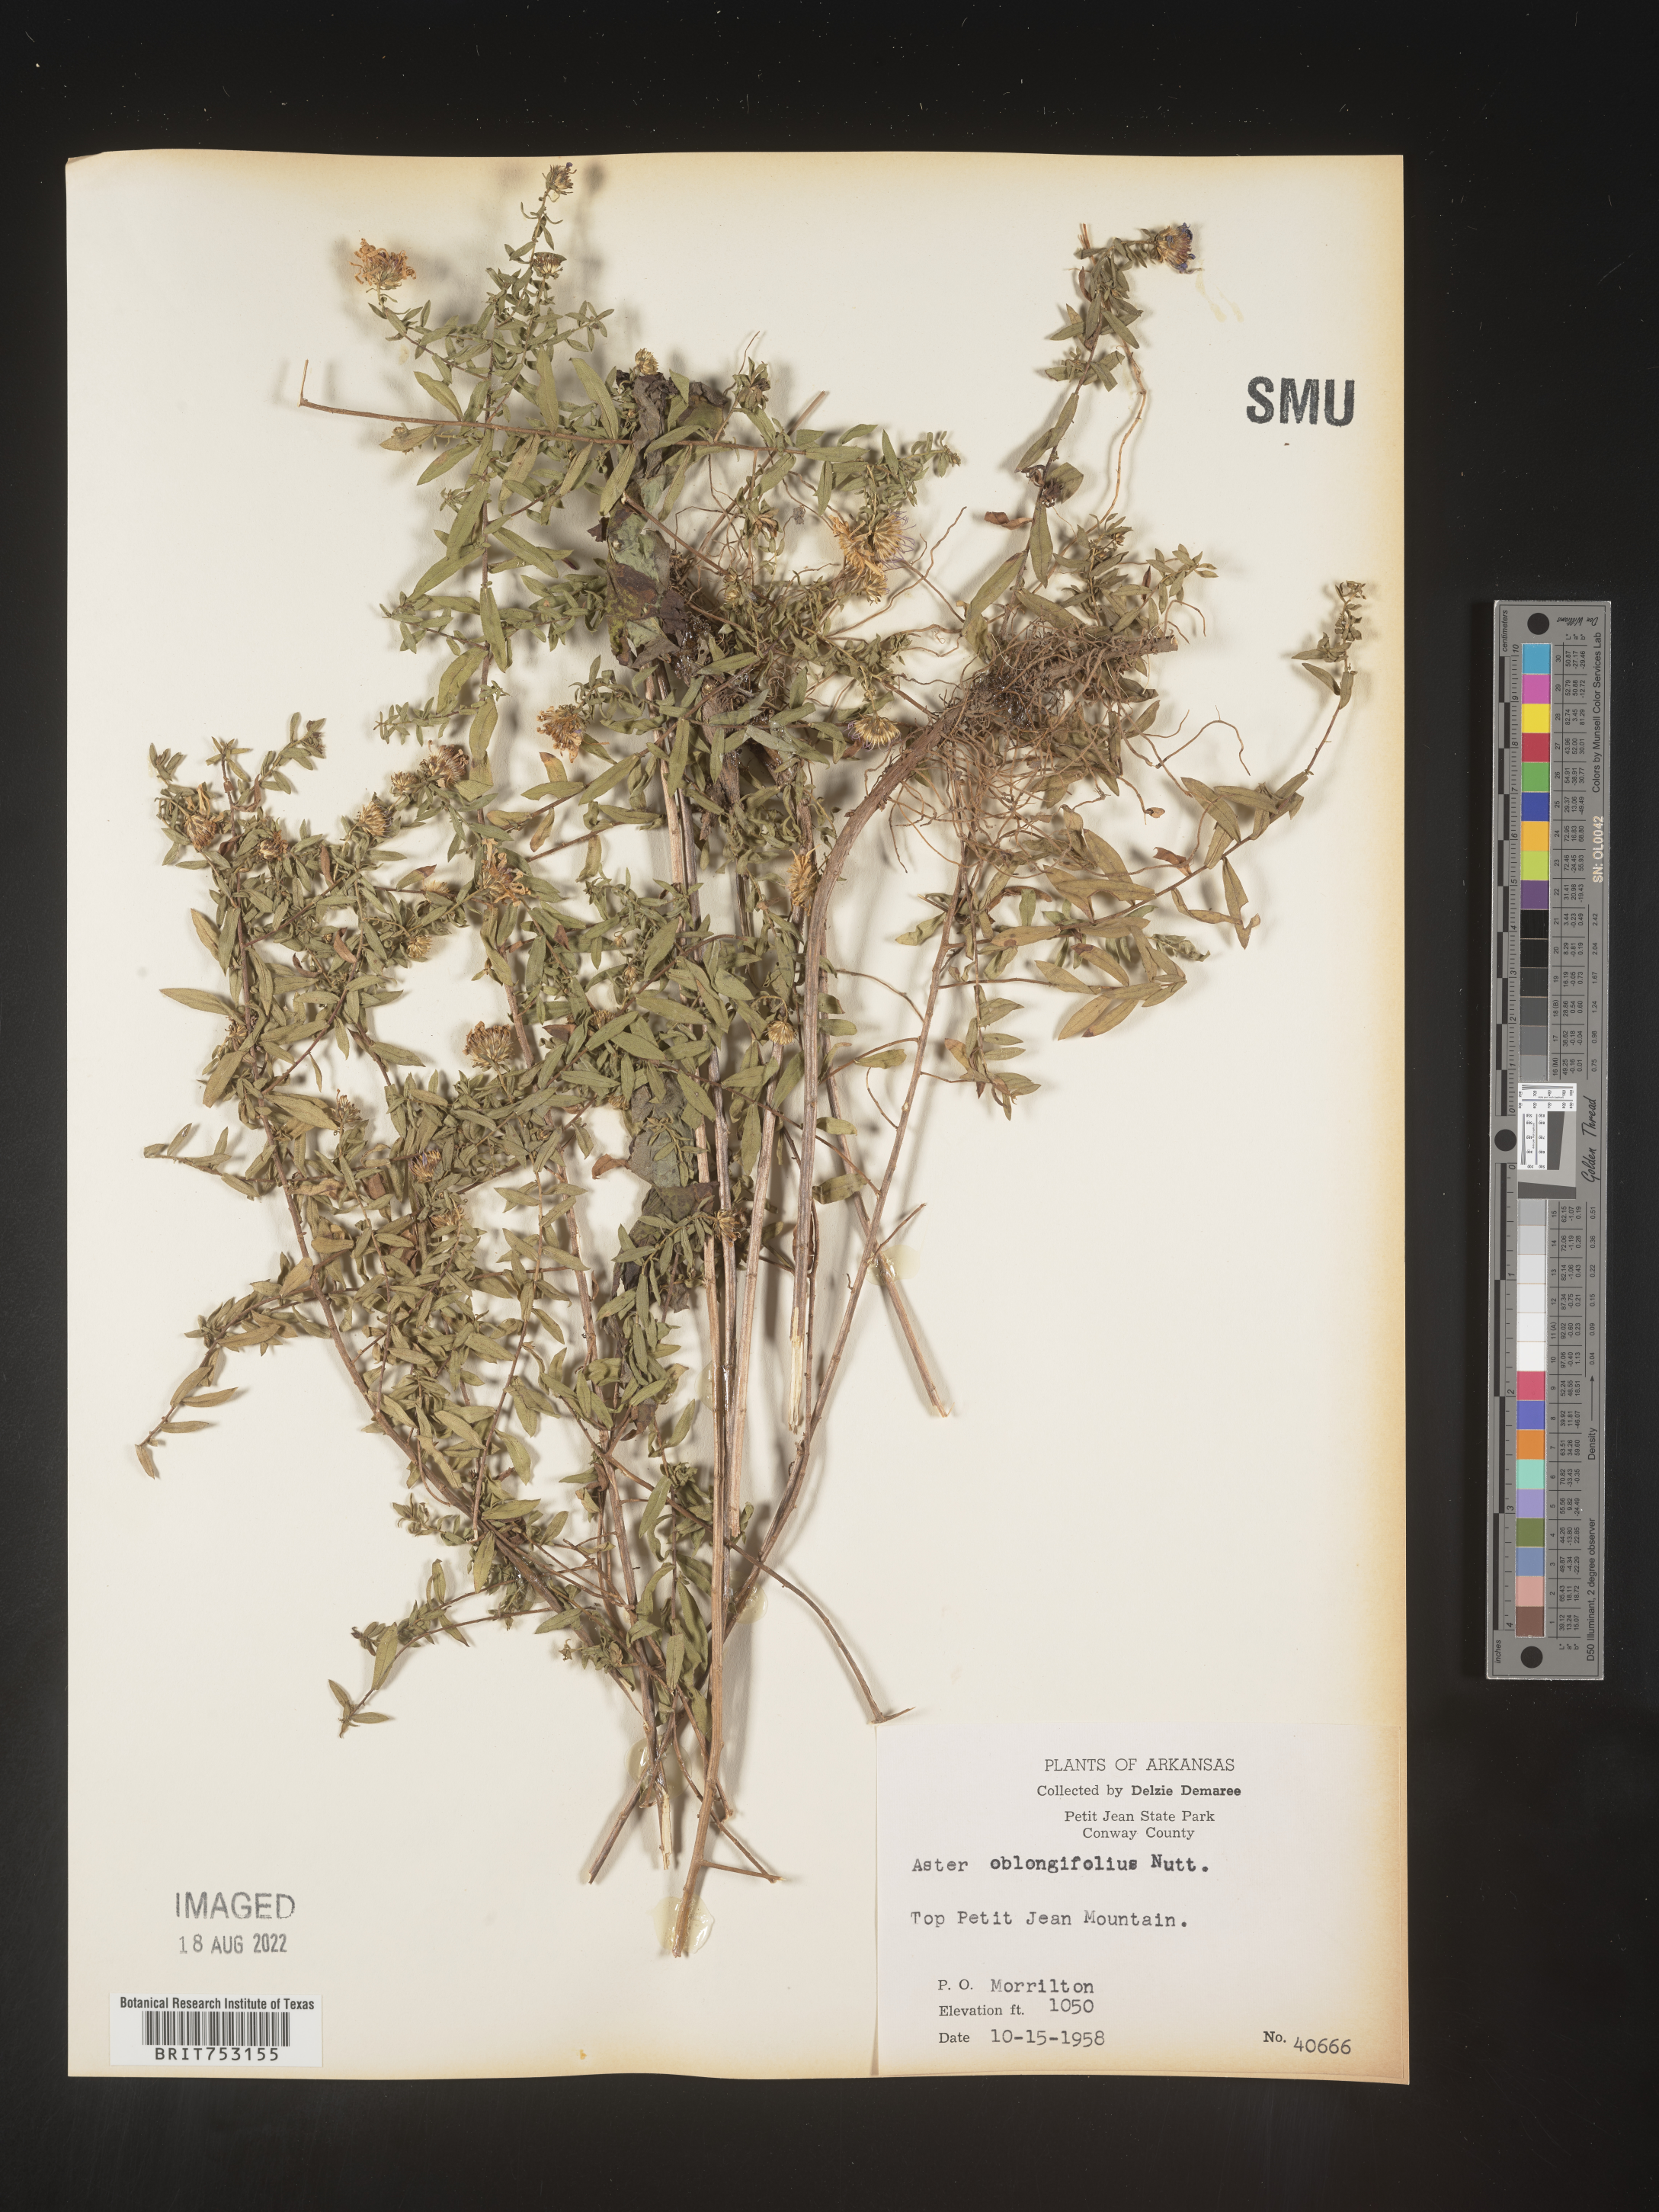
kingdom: Plantae
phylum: Tracheophyta
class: Magnoliopsida
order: Asterales
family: Asteraceae
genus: Symphyotrichum
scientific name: Symphyotrichum oblongifolium
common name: Aromatic aster
